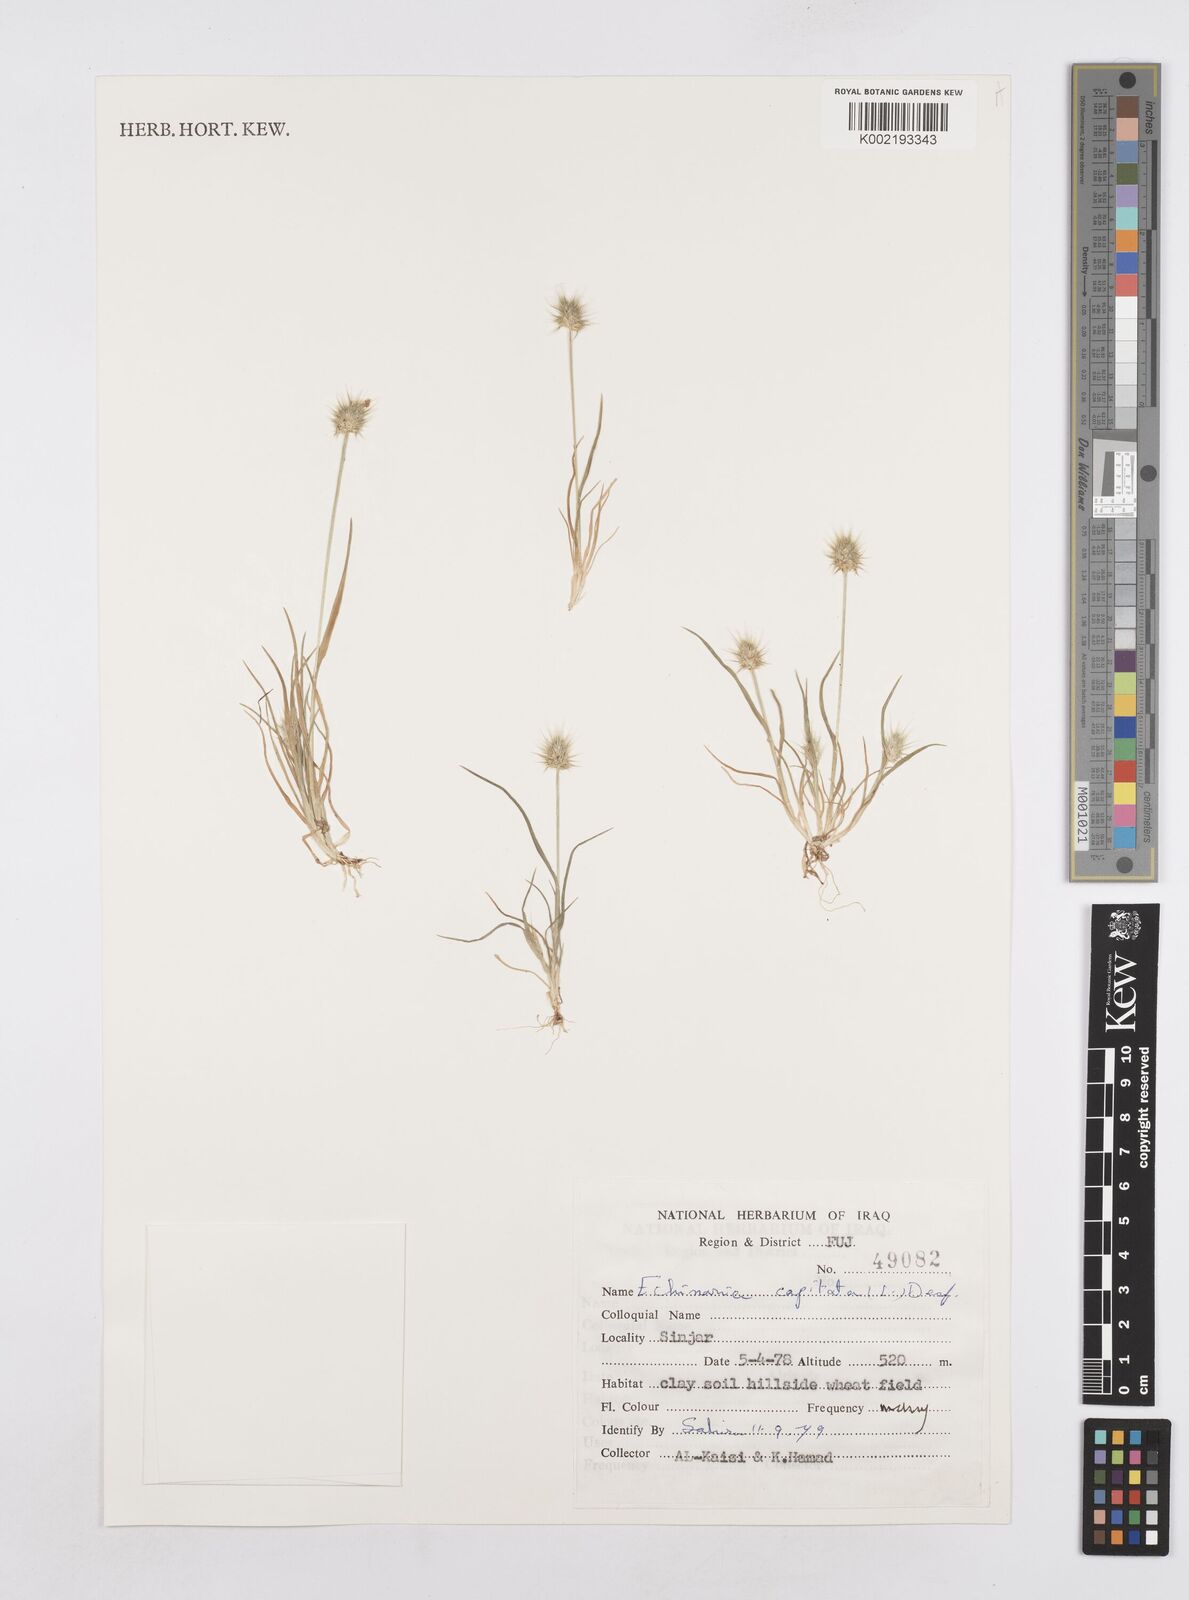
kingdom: Plantae
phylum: Tracheophyta
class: Liliopsida
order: Poales
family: Poaceae
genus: Echinaria
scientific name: Echinaria capitata
